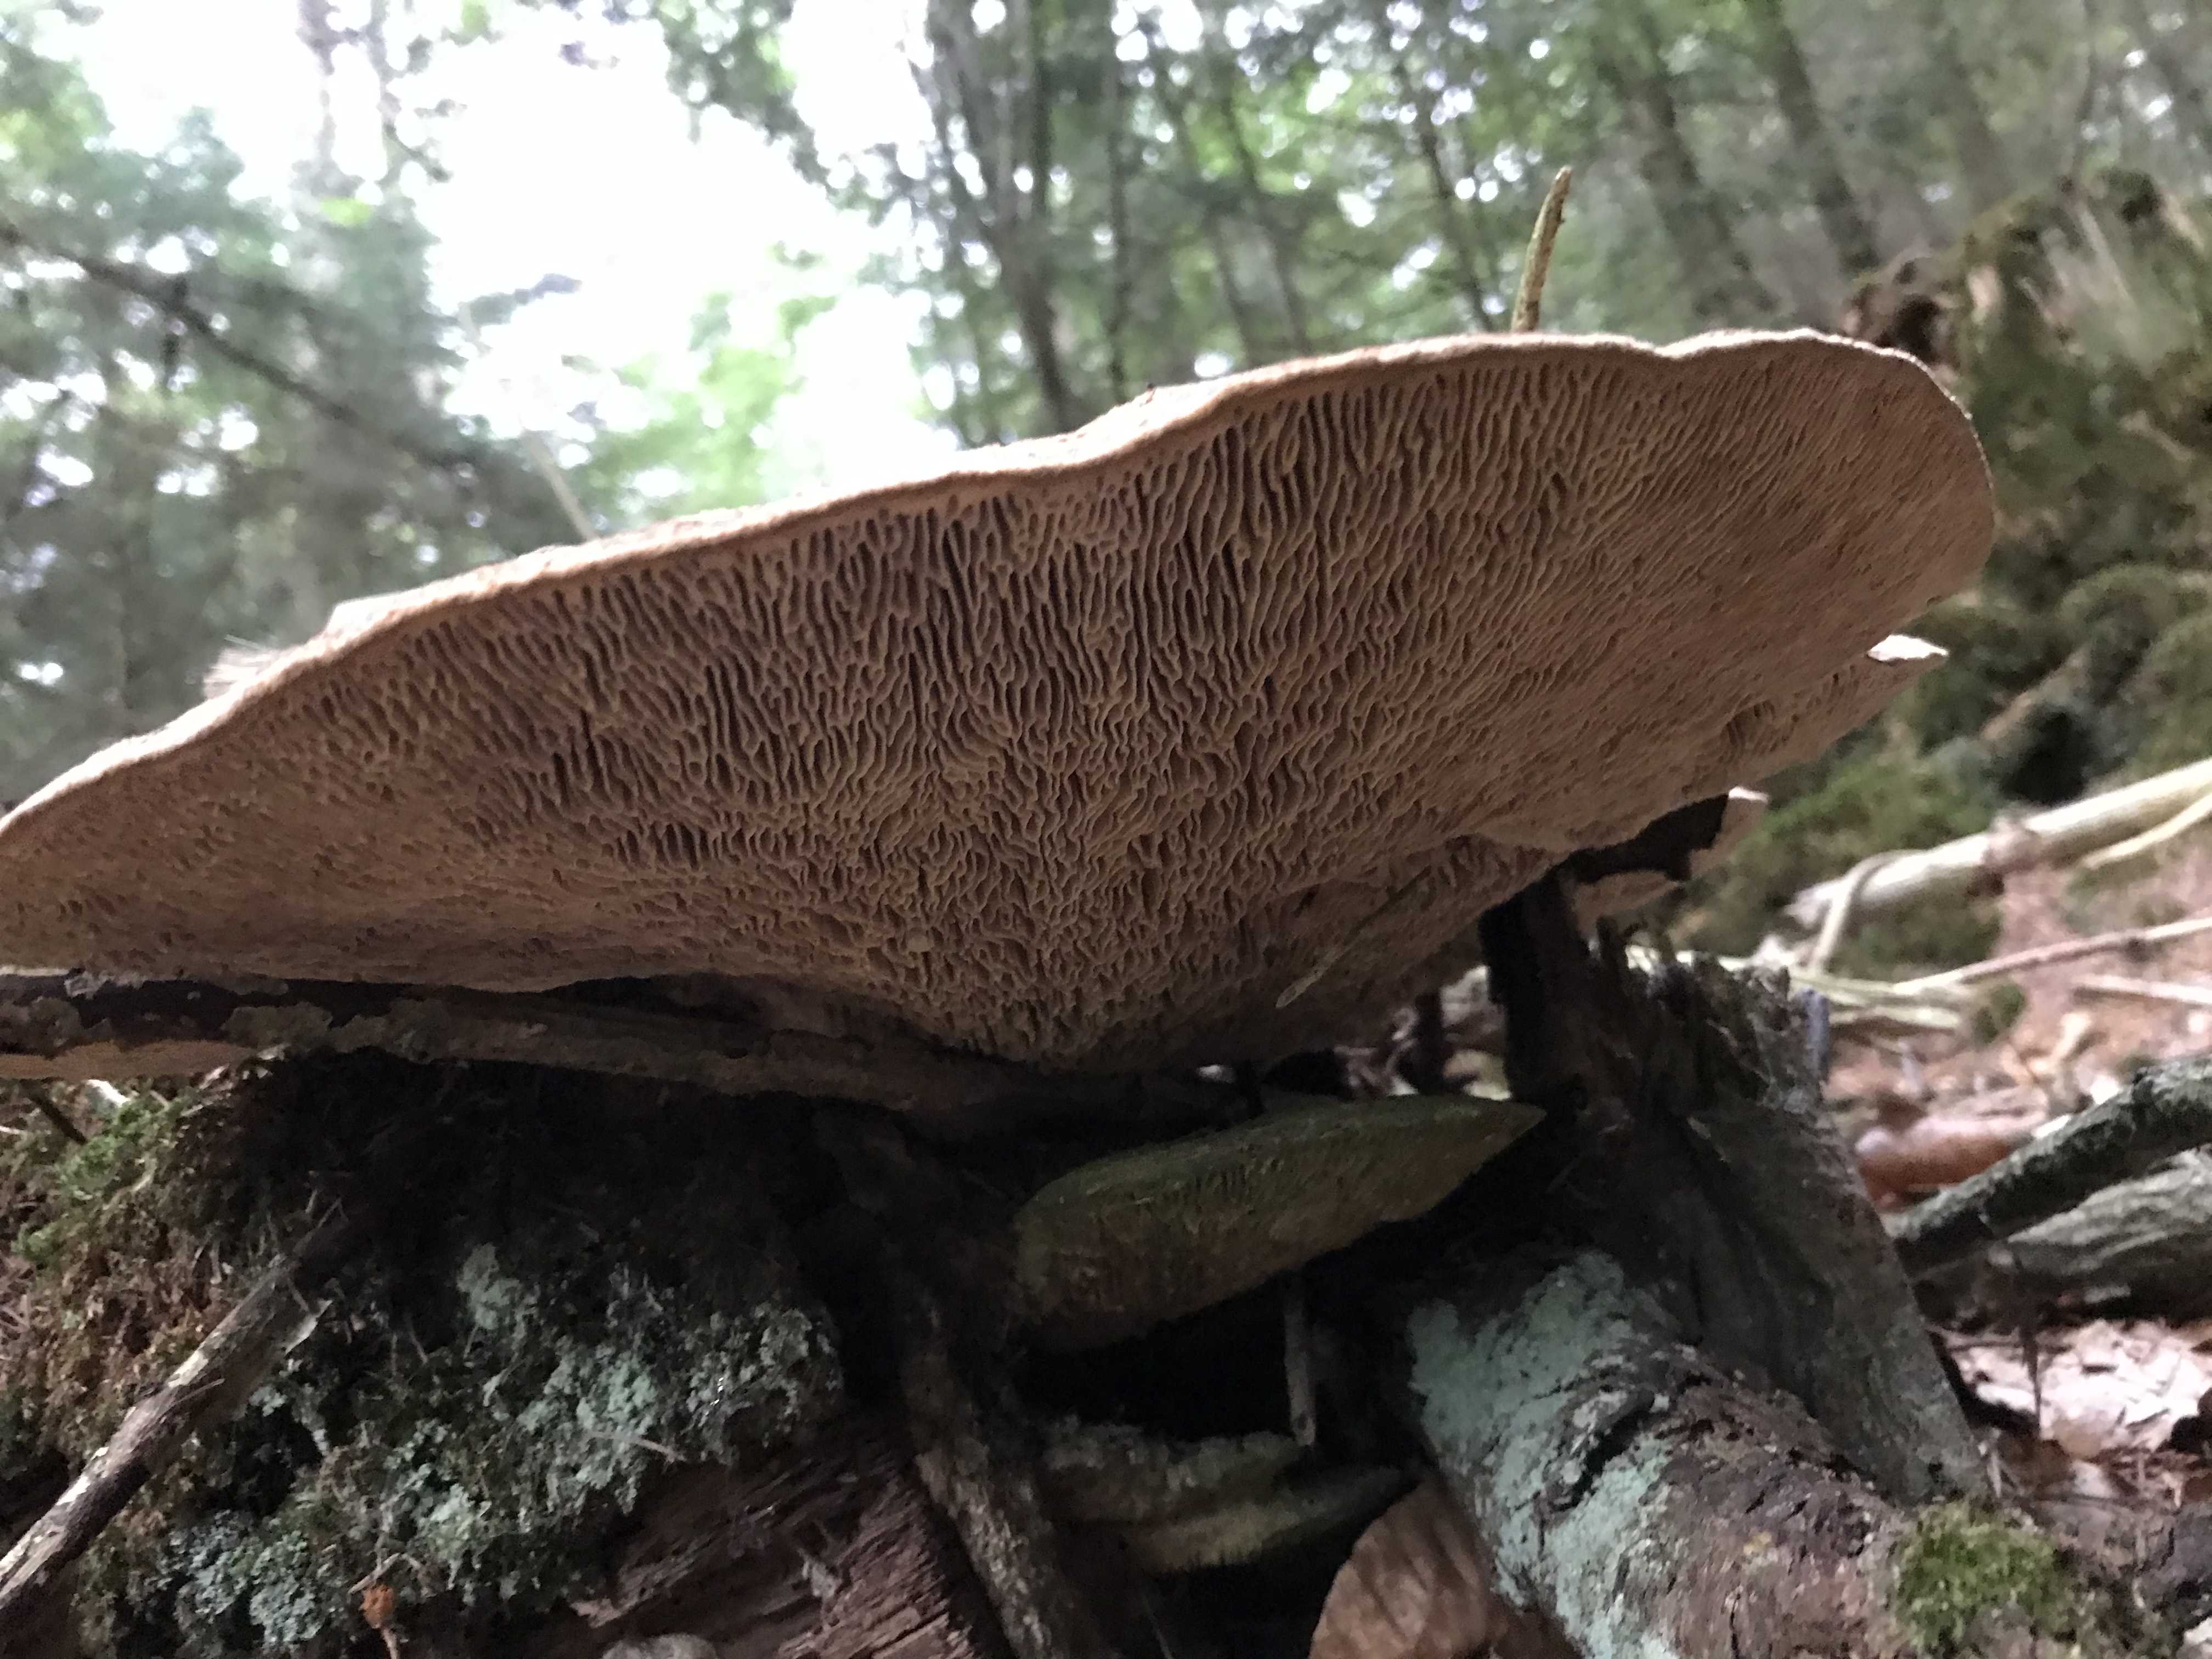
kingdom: Fungi
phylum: Basidiomycota
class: Agaricomycetes
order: Polyporales
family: Fomitopsidaceae
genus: Daedalea
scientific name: Daedalea quercina
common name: ege-labyrintsvamp
